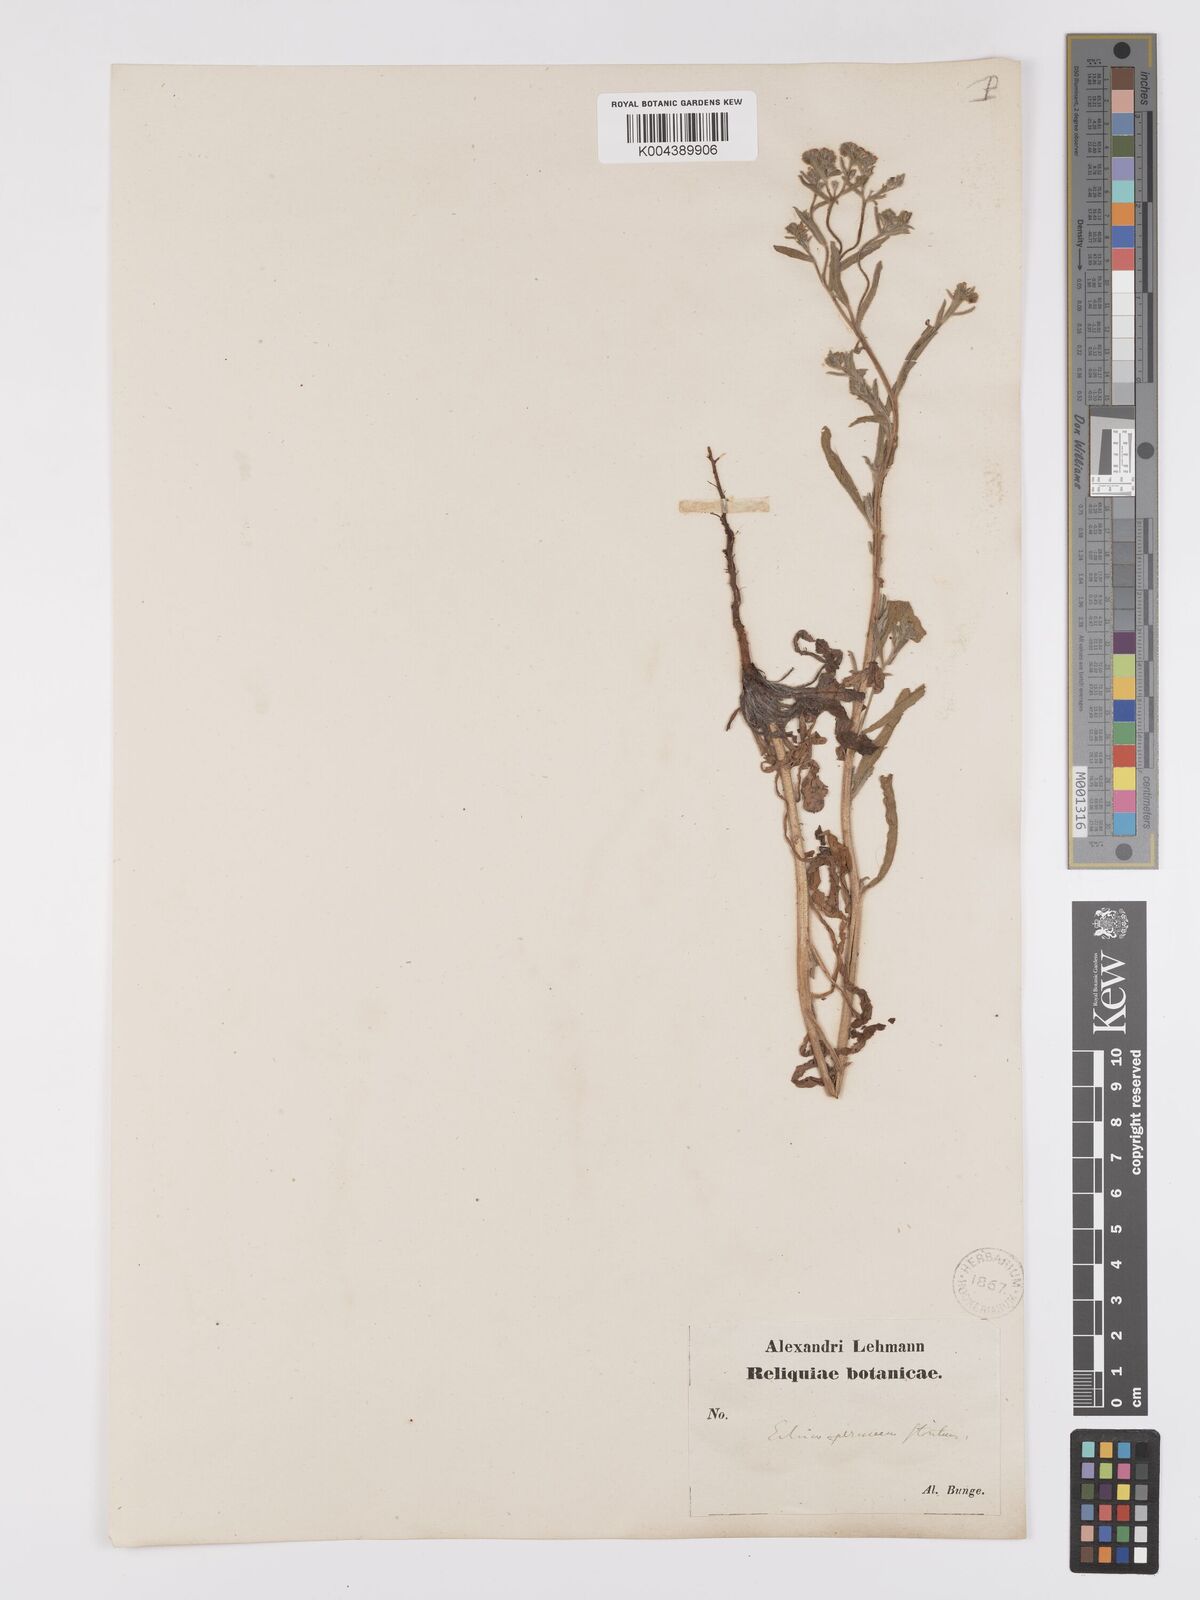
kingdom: Plantae
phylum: Tracheophyta
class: Magnoliopsida
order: Boraginales
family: Boraginaceae
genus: Lappula
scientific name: Lappula stricta
